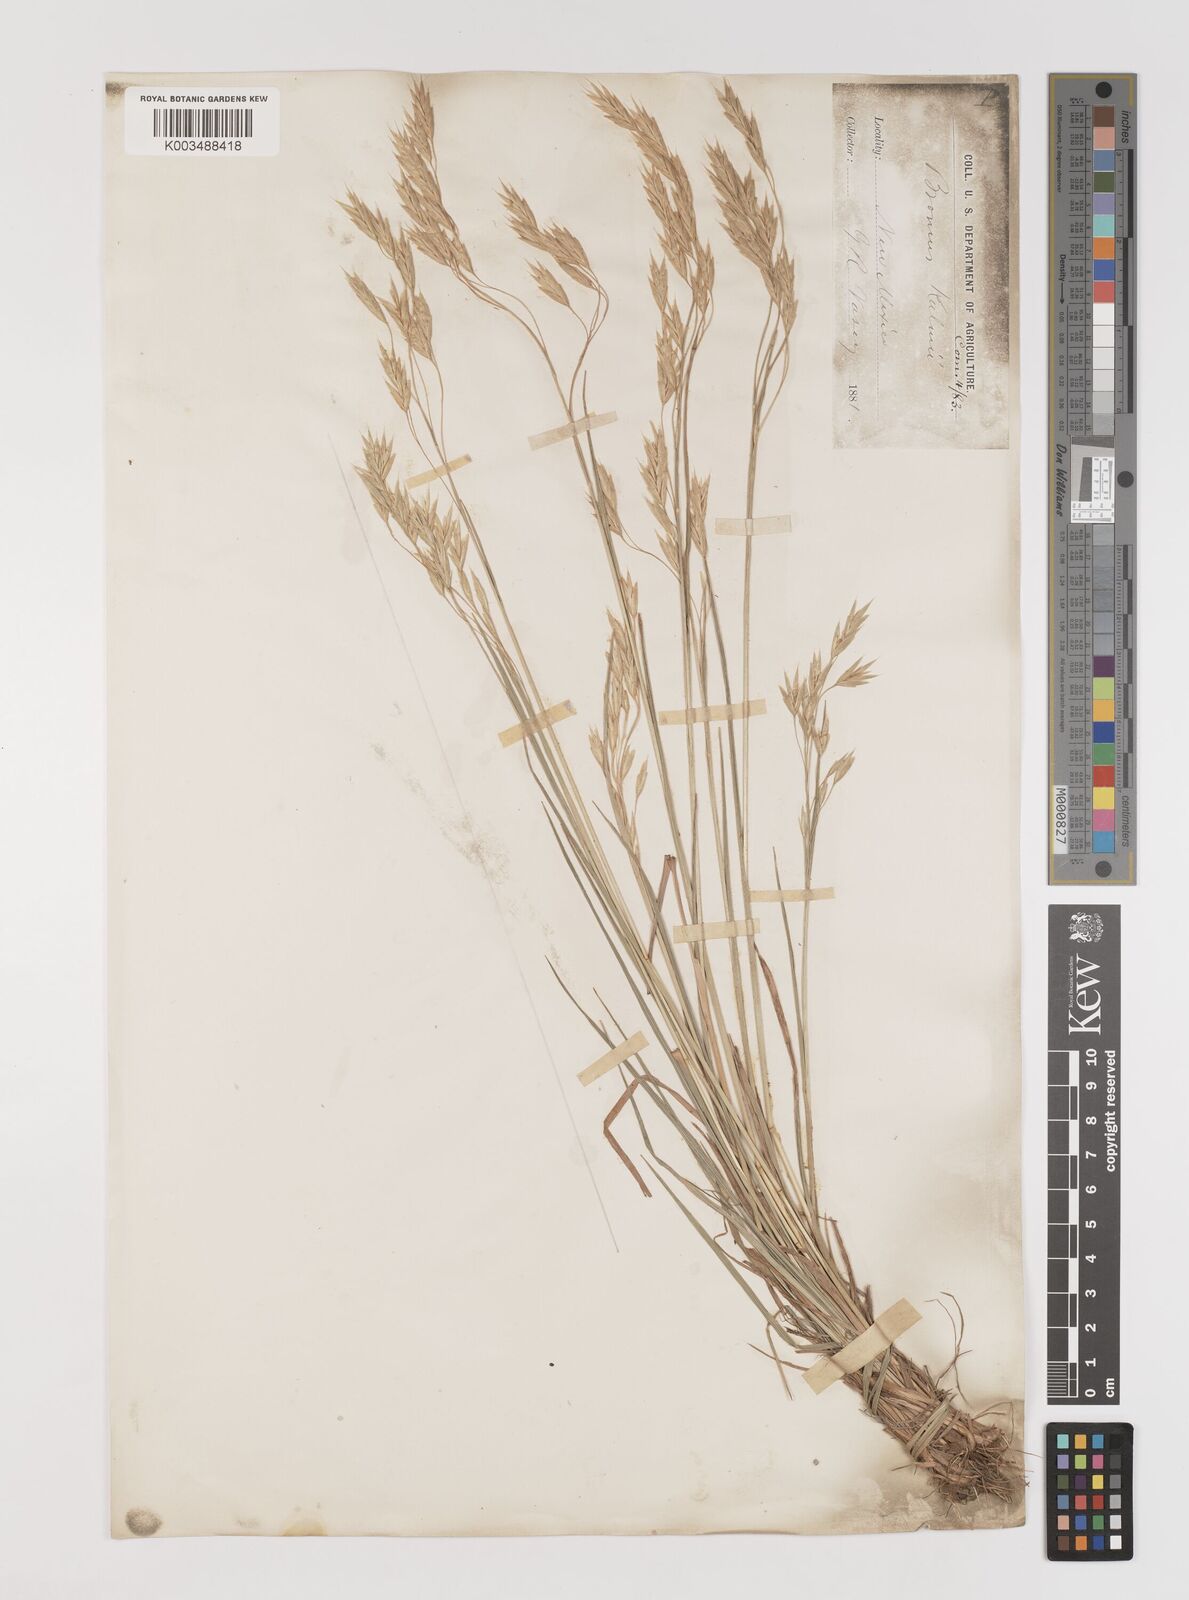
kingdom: Plantae
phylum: Tracheophyta
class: Liliopsida
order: Poales
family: Poaceae
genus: Bromus
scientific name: Bromus ciliatus
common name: Fringe brome
